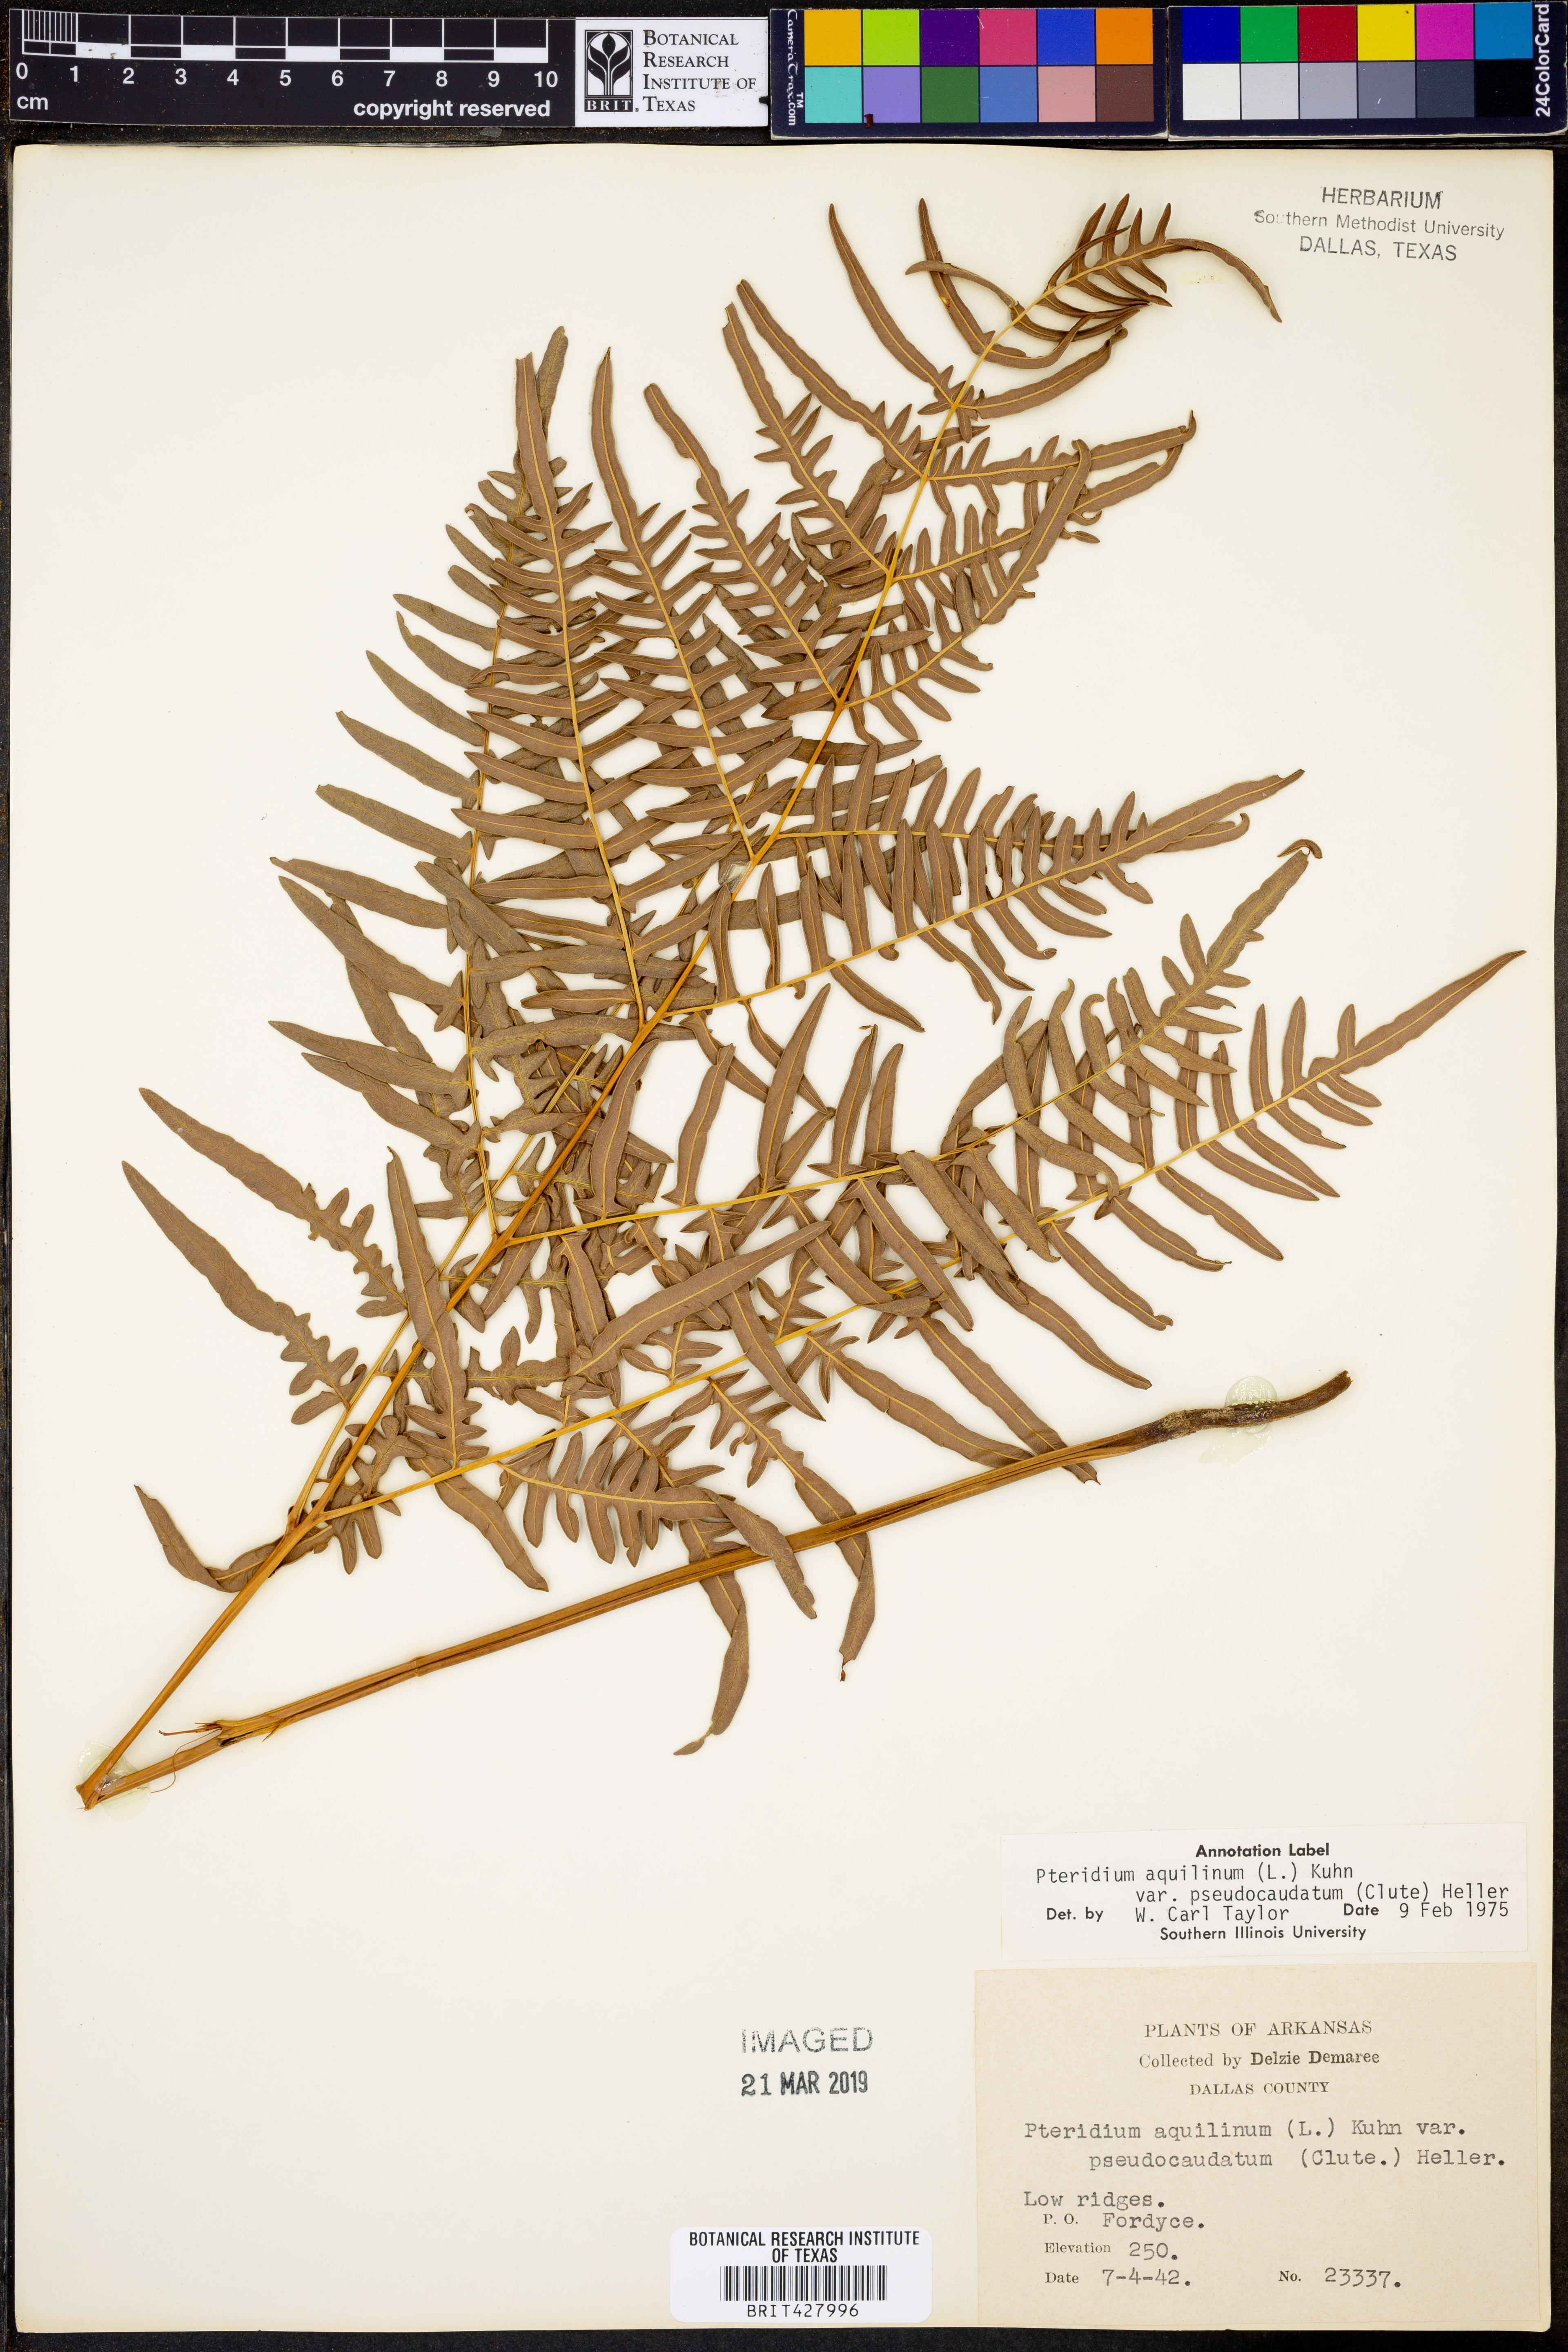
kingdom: Plantae
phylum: Tracheophyta
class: Polypodiopsida
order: Polypodiales
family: Dennstaedtiaceae
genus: Pteridium
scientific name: Pteridium aquilinum
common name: Bracken
